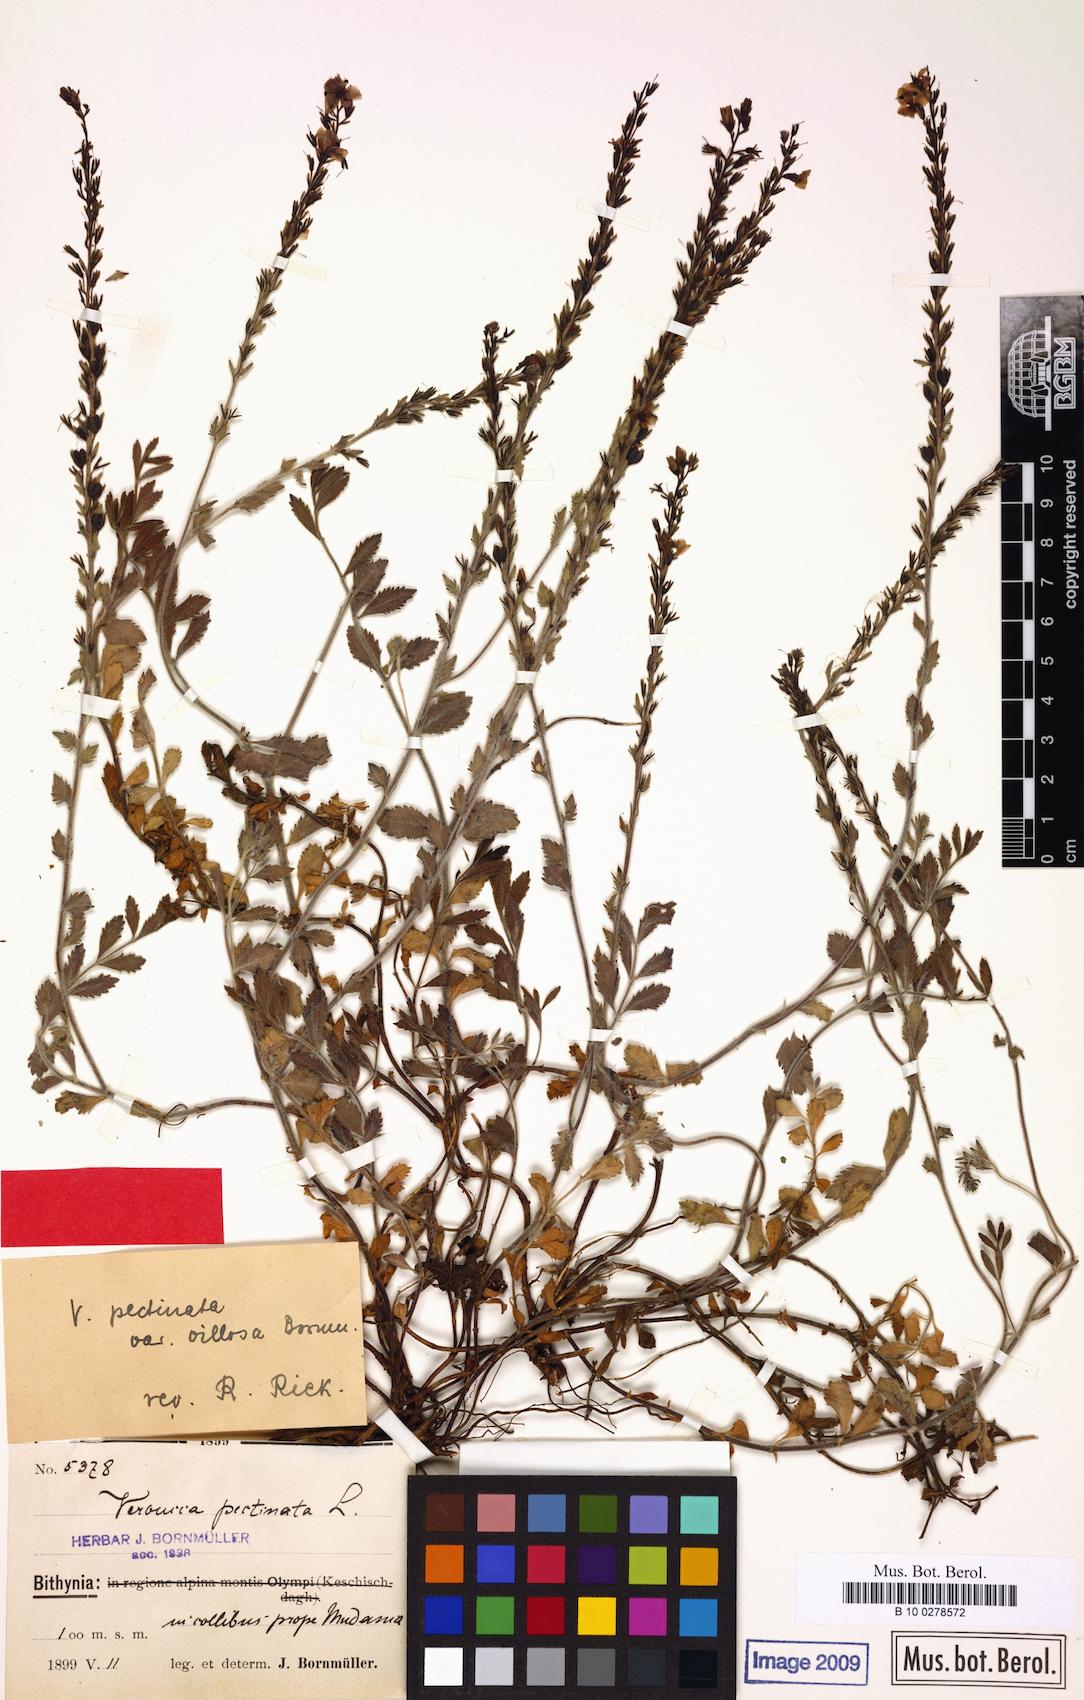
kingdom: Plantae
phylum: Tracheophyta
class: Magnoliopsida
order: Lamiales
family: Plantaginaceae
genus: Veronica
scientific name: Veronica pectinata
